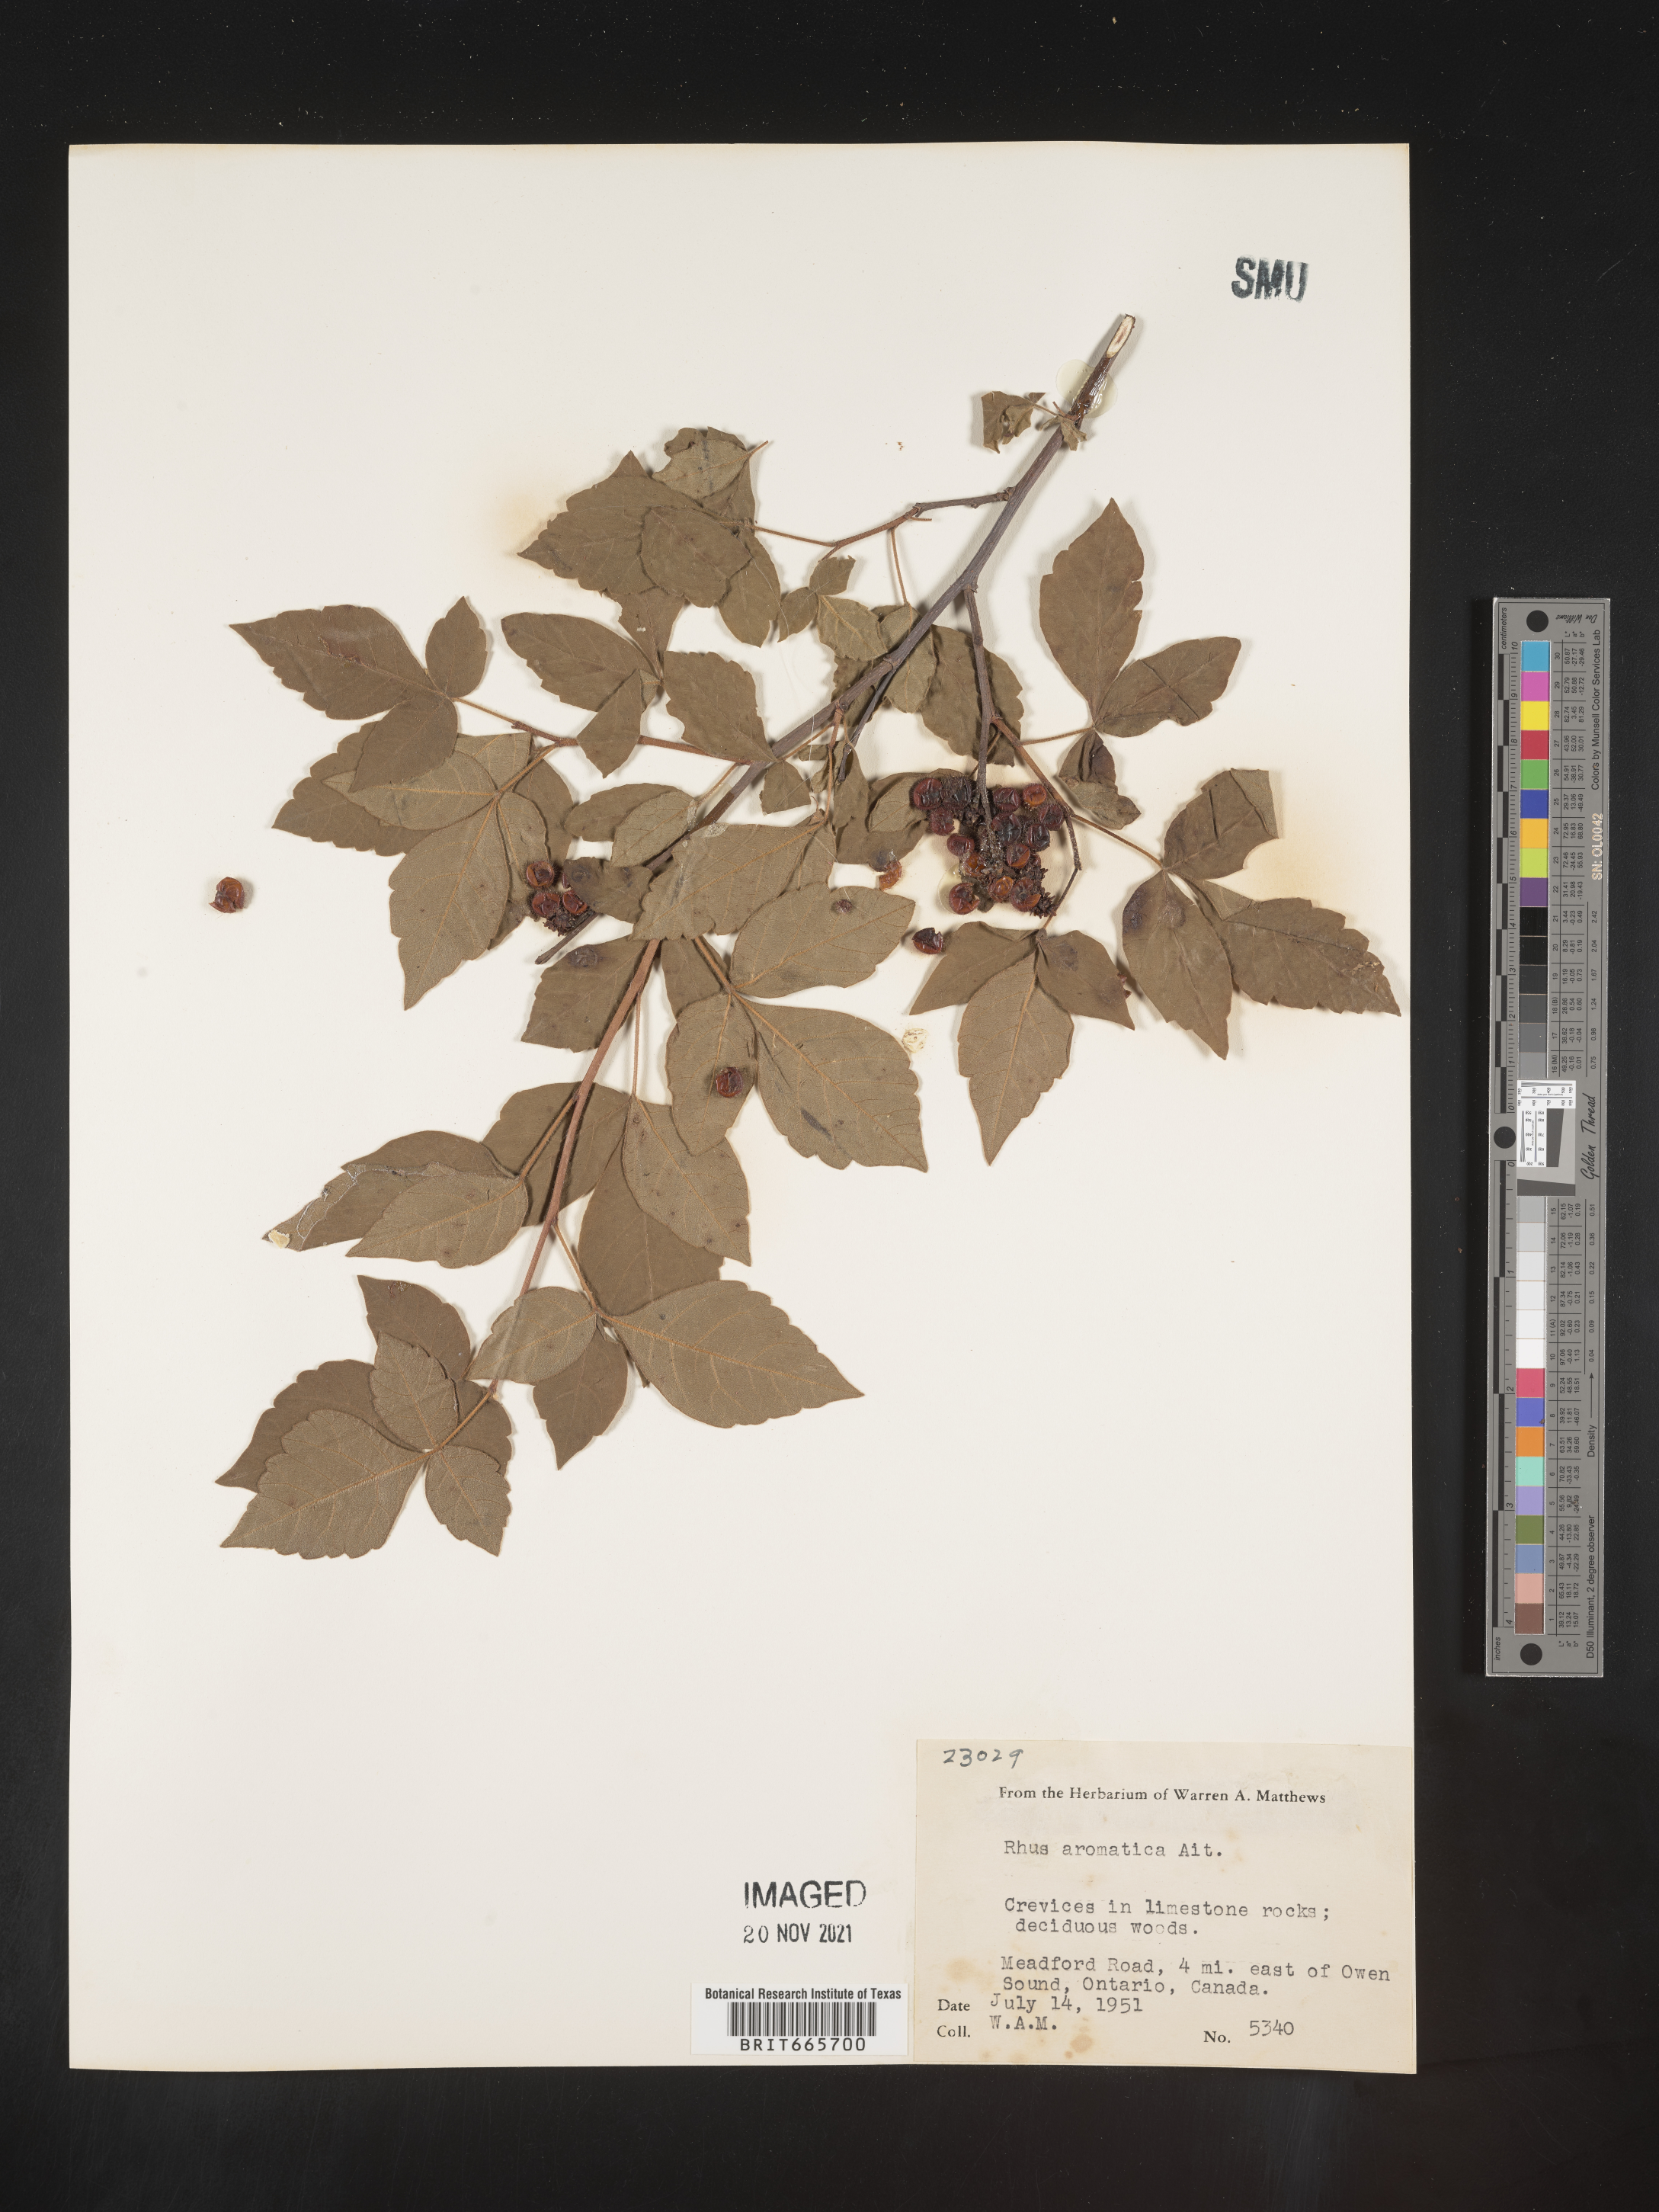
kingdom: Plantae
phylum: Tracheophyta
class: Magnoliopsida
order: Sapindales
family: Anacardiaceae
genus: Rhus
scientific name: Rhus aromatica
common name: Aromatic sumac
